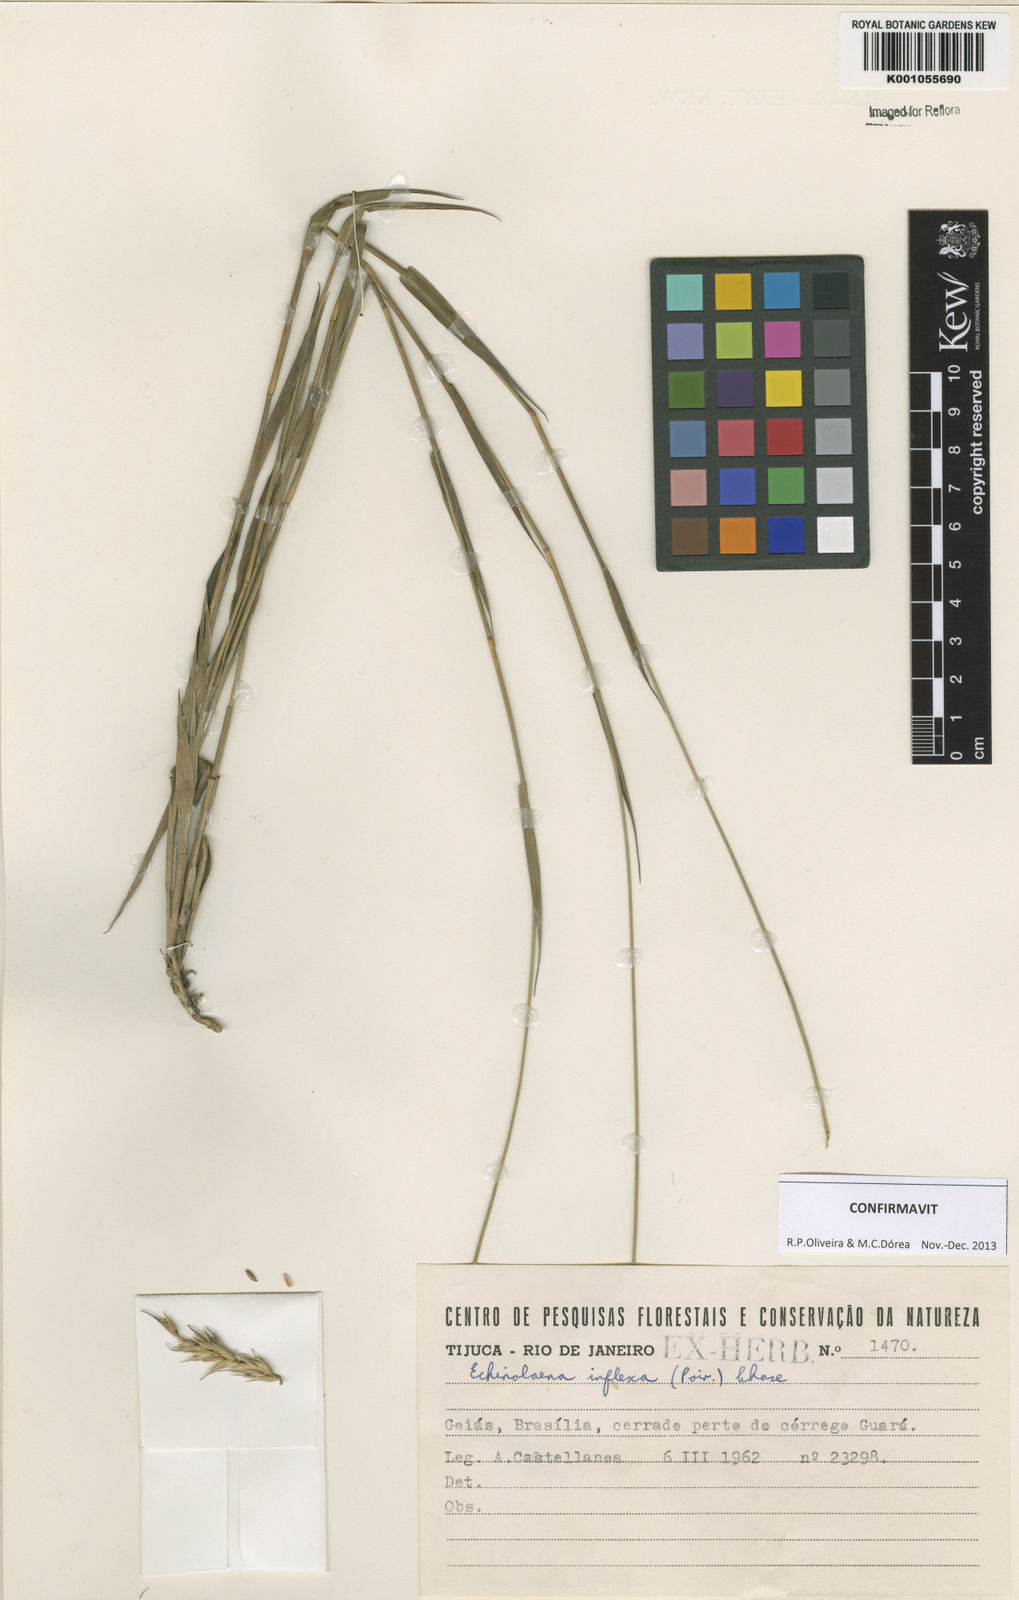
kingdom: Plantae
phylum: Tracheophyta
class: Liliopsida
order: Poales
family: Poaceae
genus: Echinolaena
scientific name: Echinolaena inflexa
